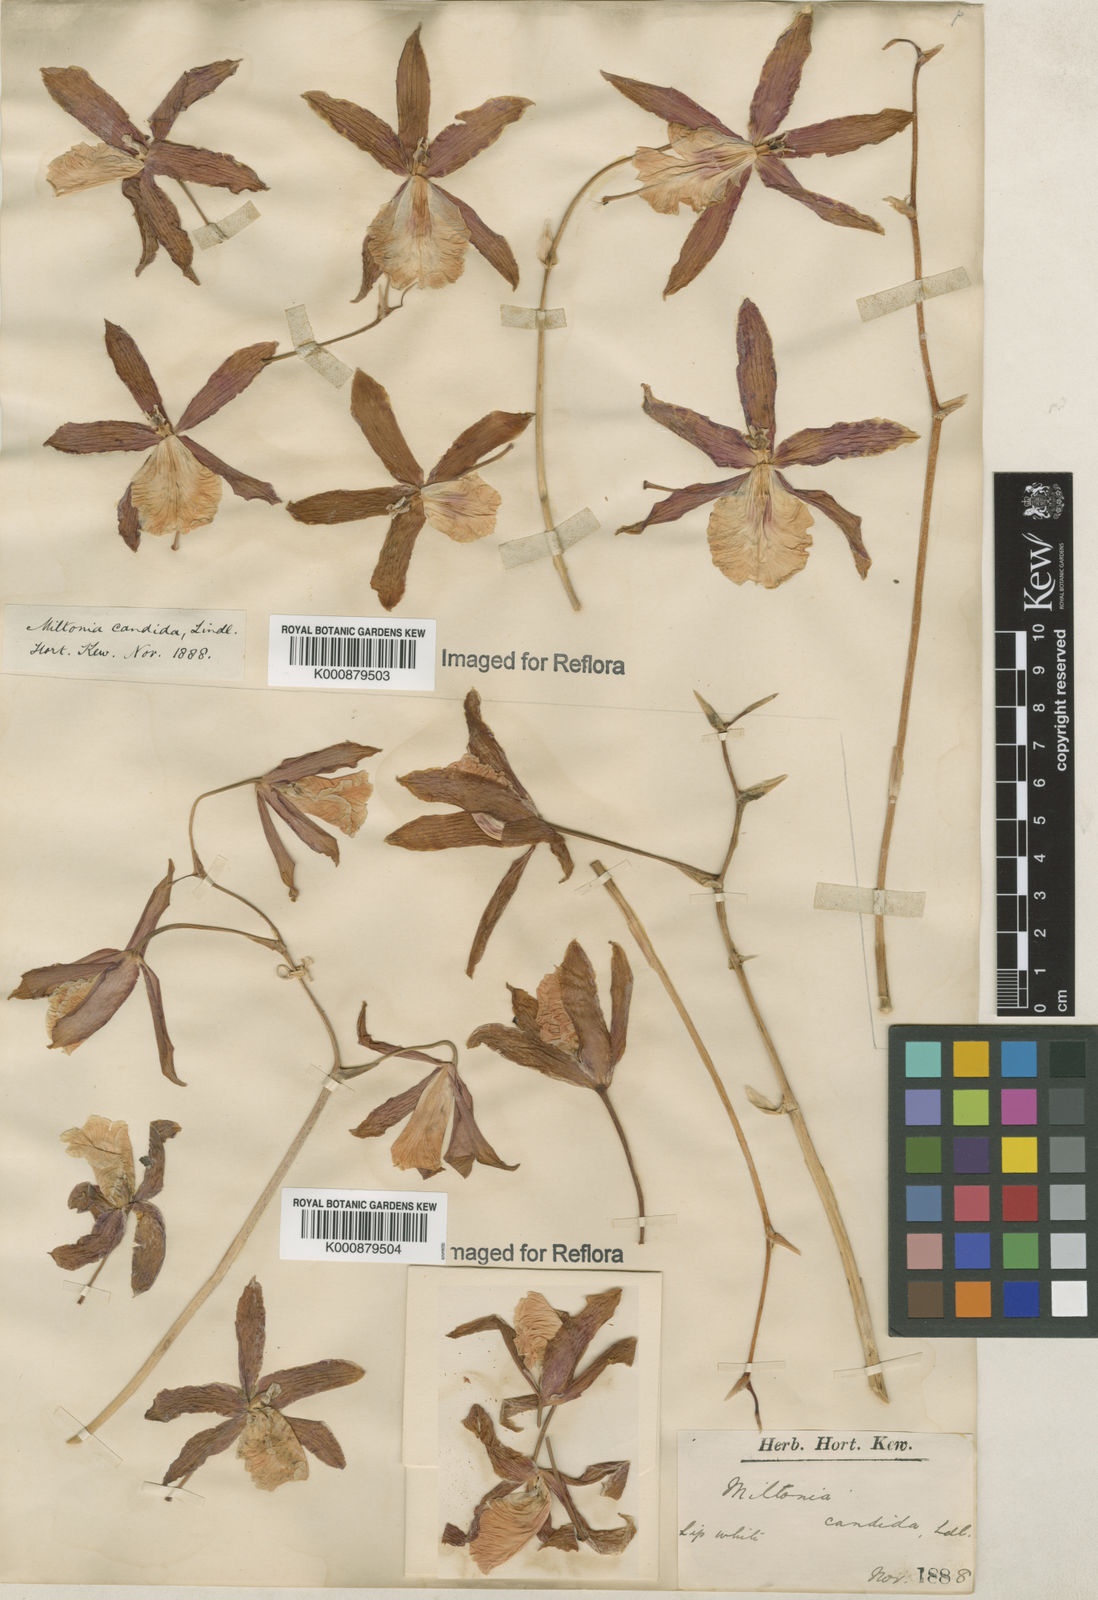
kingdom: Plantae
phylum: Tracheophyta
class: Liliopsida
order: Asparagales
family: Orchidaceae
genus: Miltonia
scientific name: Miltonia candida
